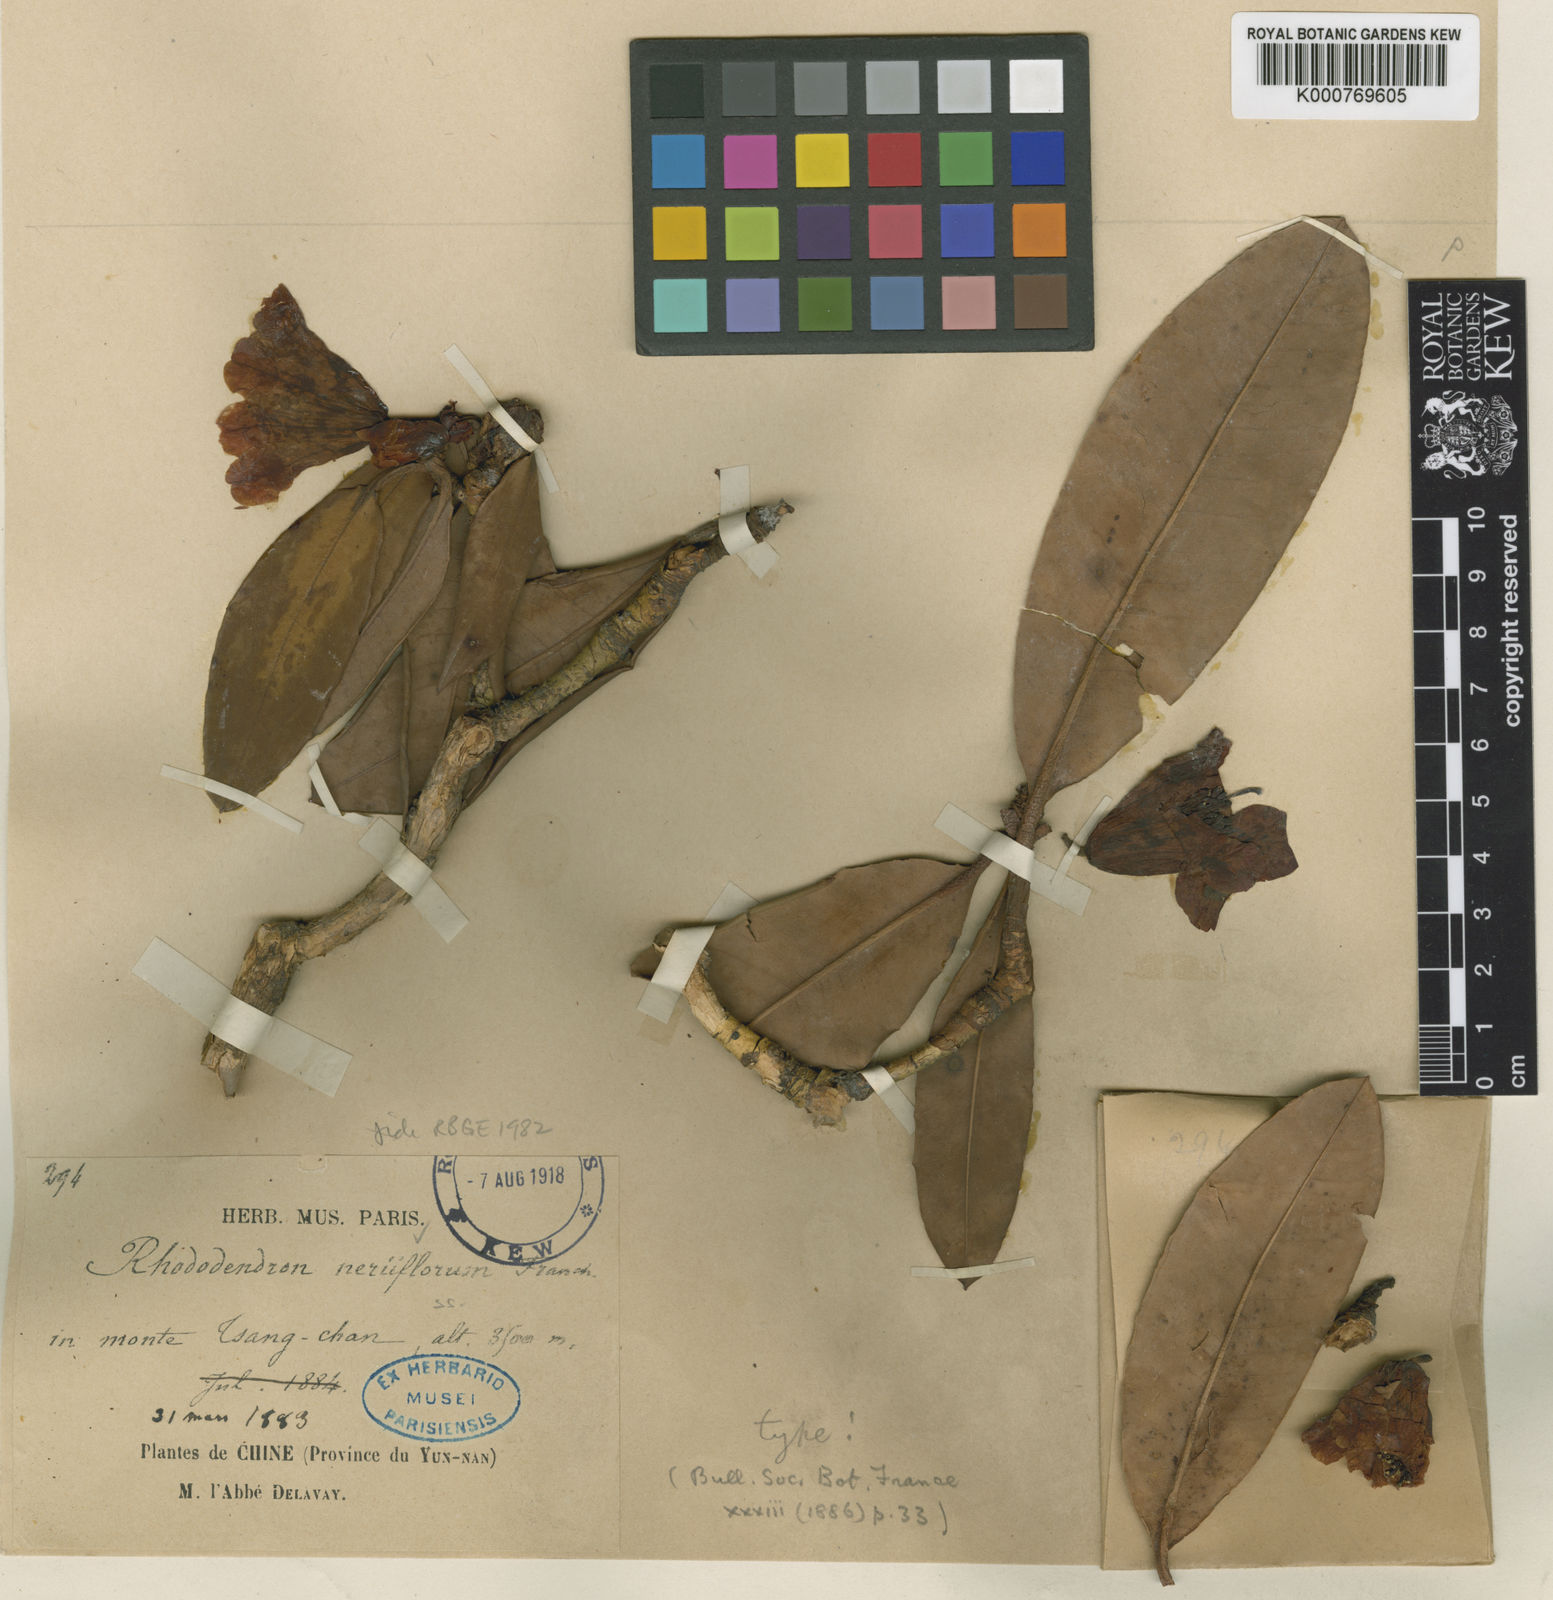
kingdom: Plantae
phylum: Tracheophyta
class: Magnoliopsida
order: Ericales
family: Ericaceae
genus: Rhododendron
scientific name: Rhododendron neriiflorum
